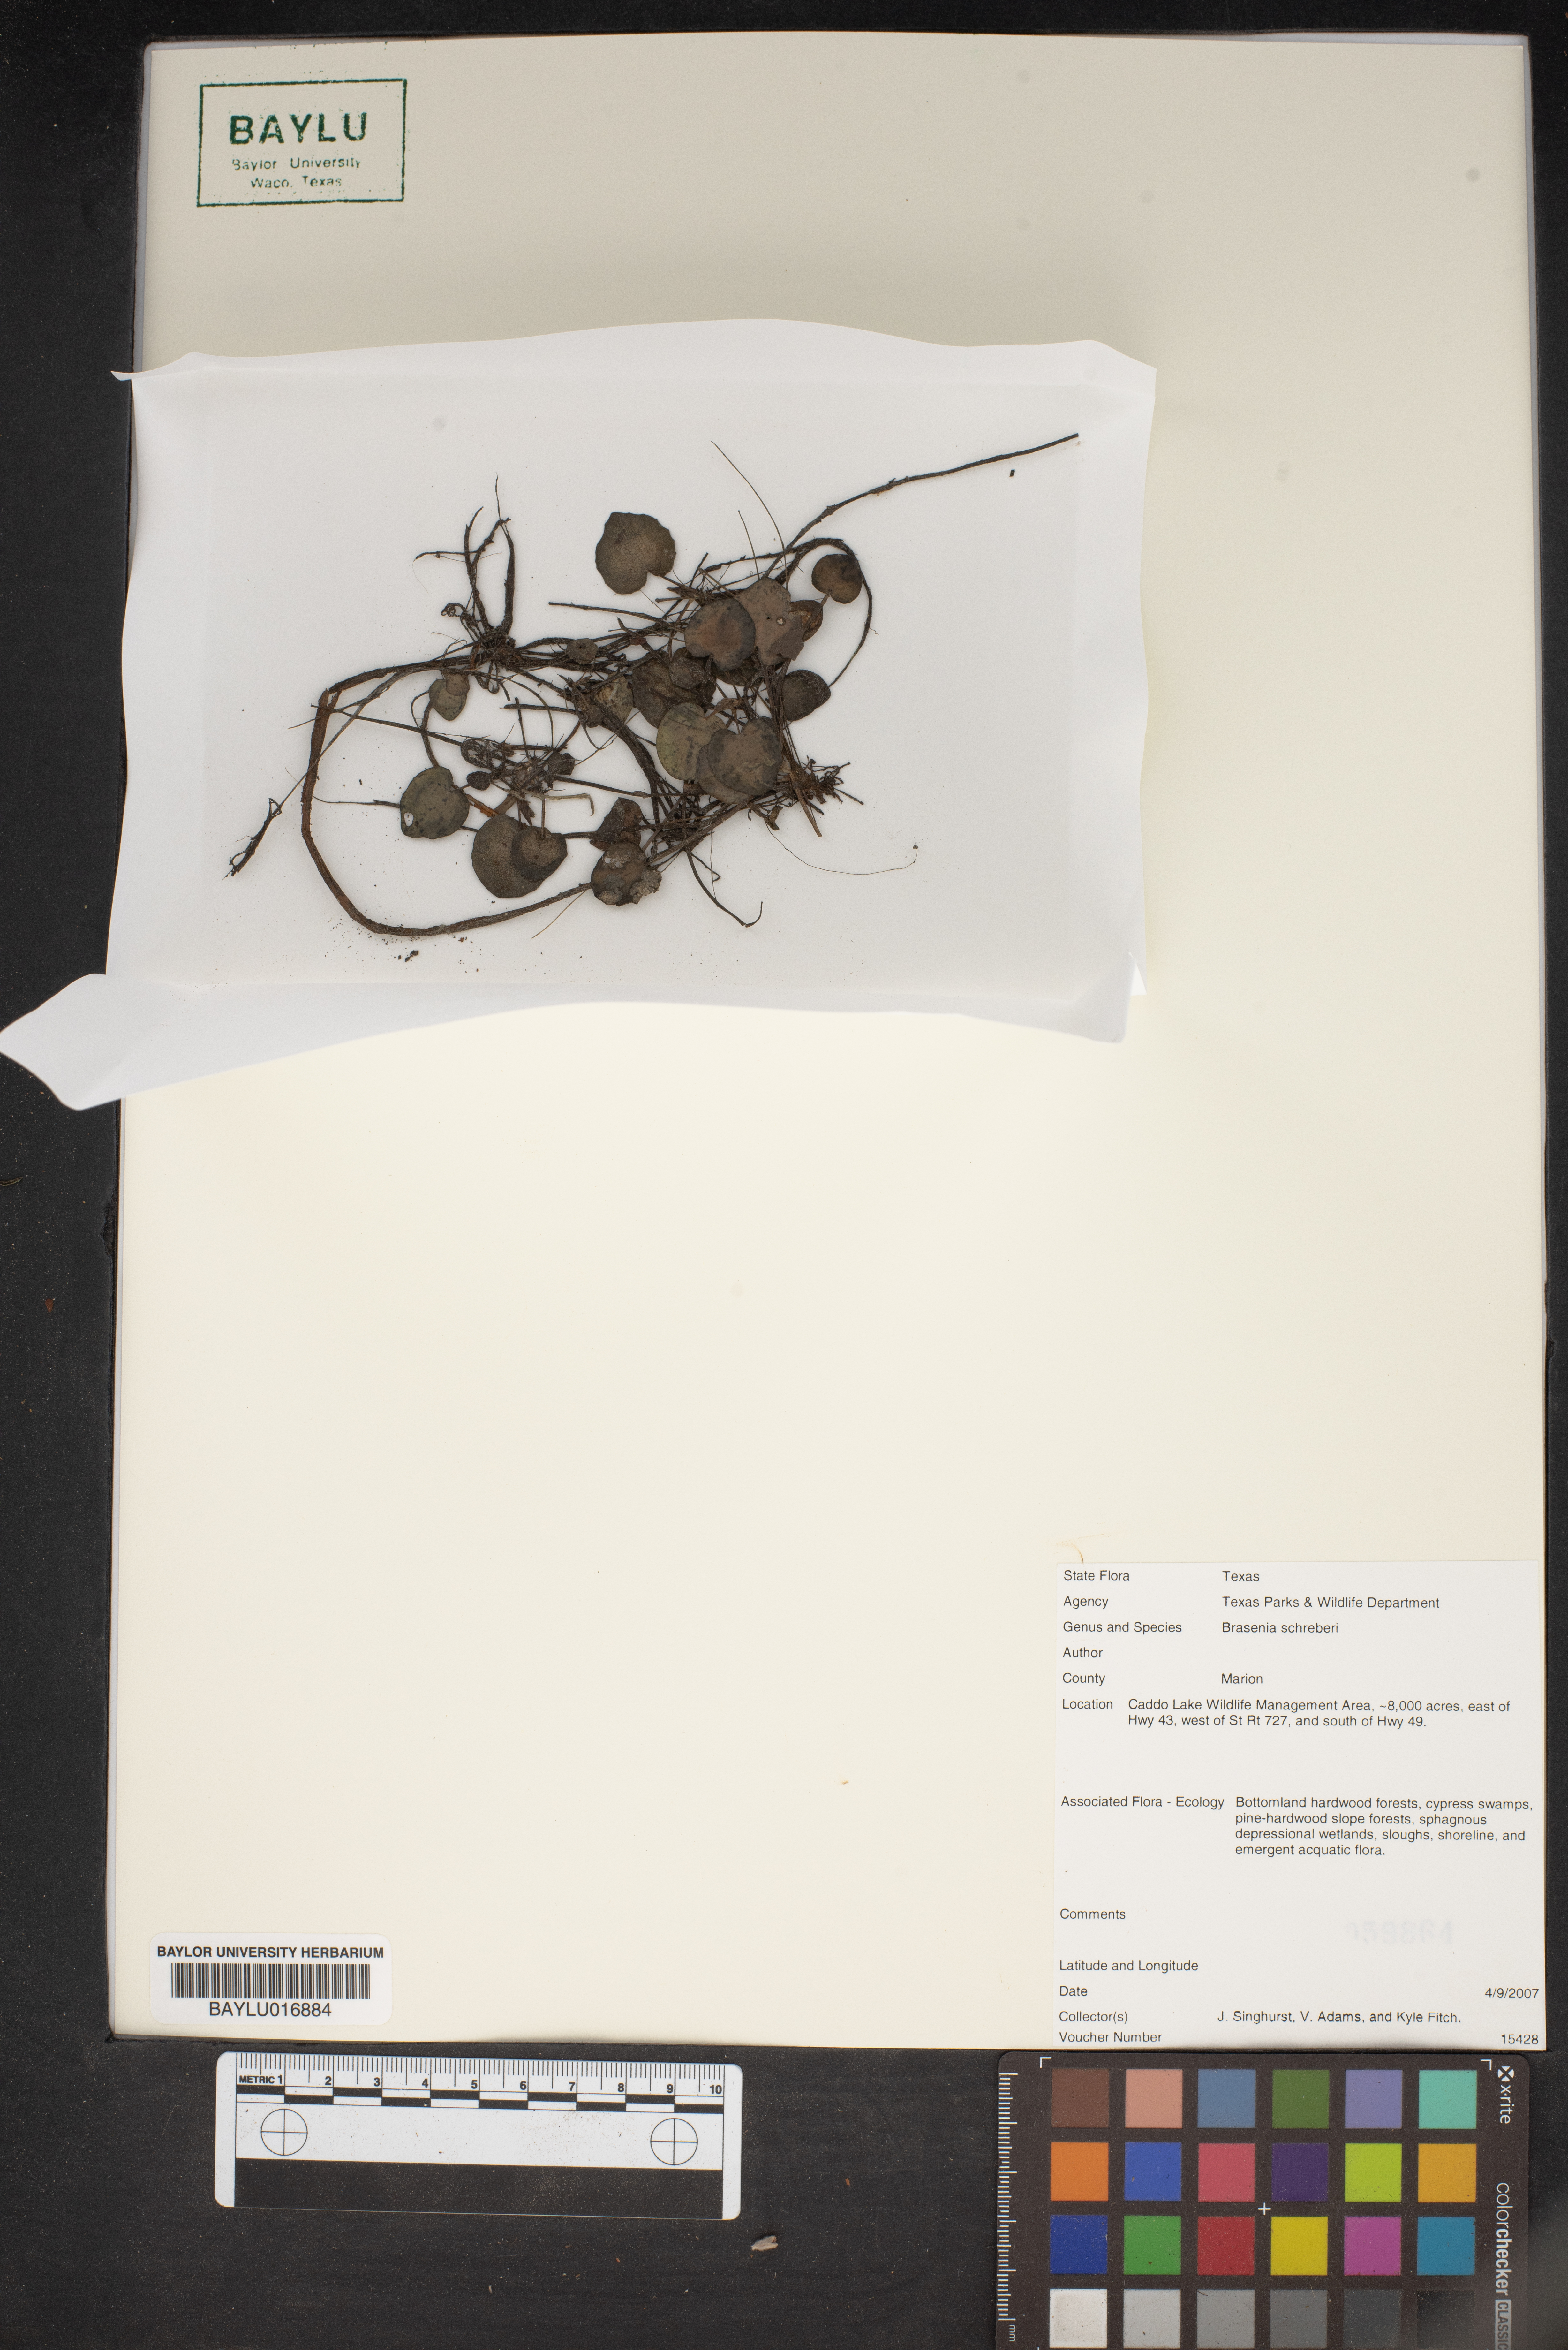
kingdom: Plantae
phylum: Tracheophyta
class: Magnoliopsida
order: Nymphaeales
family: Cabombaceae
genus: Brasenia
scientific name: Brasenia schreberi
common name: Water-shield
